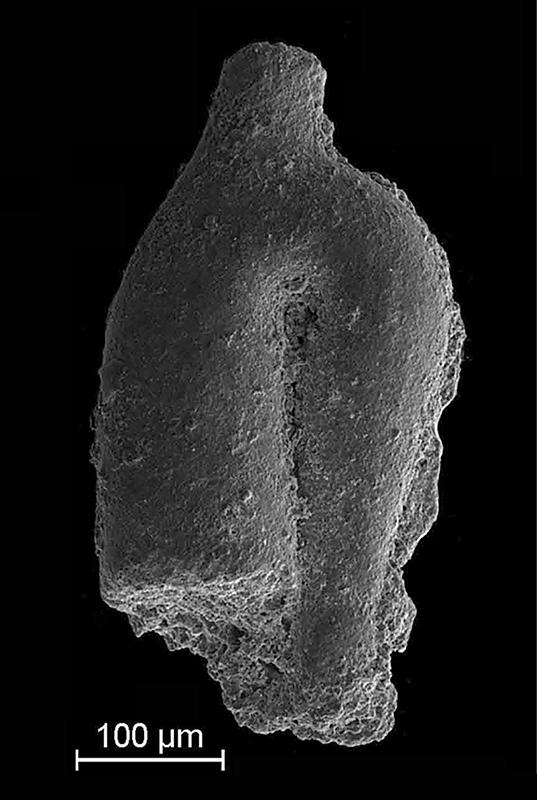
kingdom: Animalia
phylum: Mollusca
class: Rostroconchia
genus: Jinonicella
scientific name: Jinonicella kolebabai
